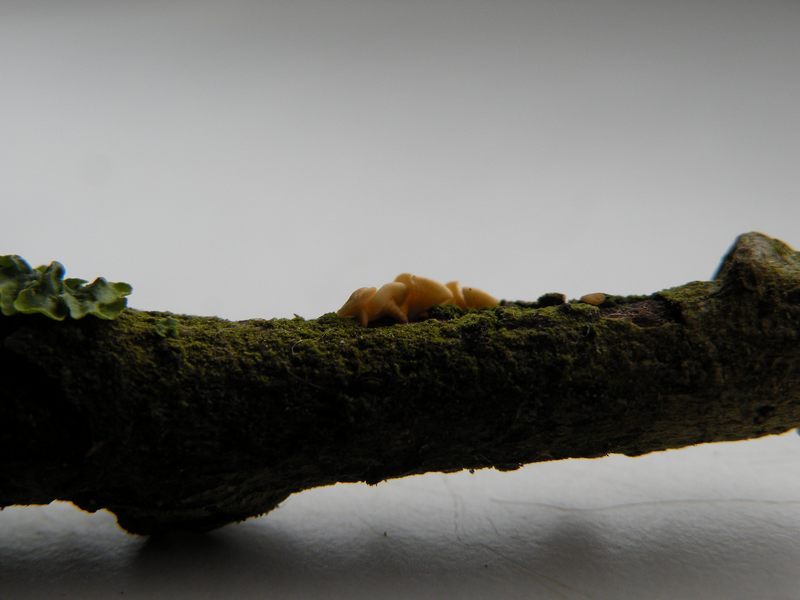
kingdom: Fungi
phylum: Ascomycota
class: Leotiomycetes
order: Helotiales
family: Helotiaceae
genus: Hymenoscyphus
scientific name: Hymenoscyphus calyculus
